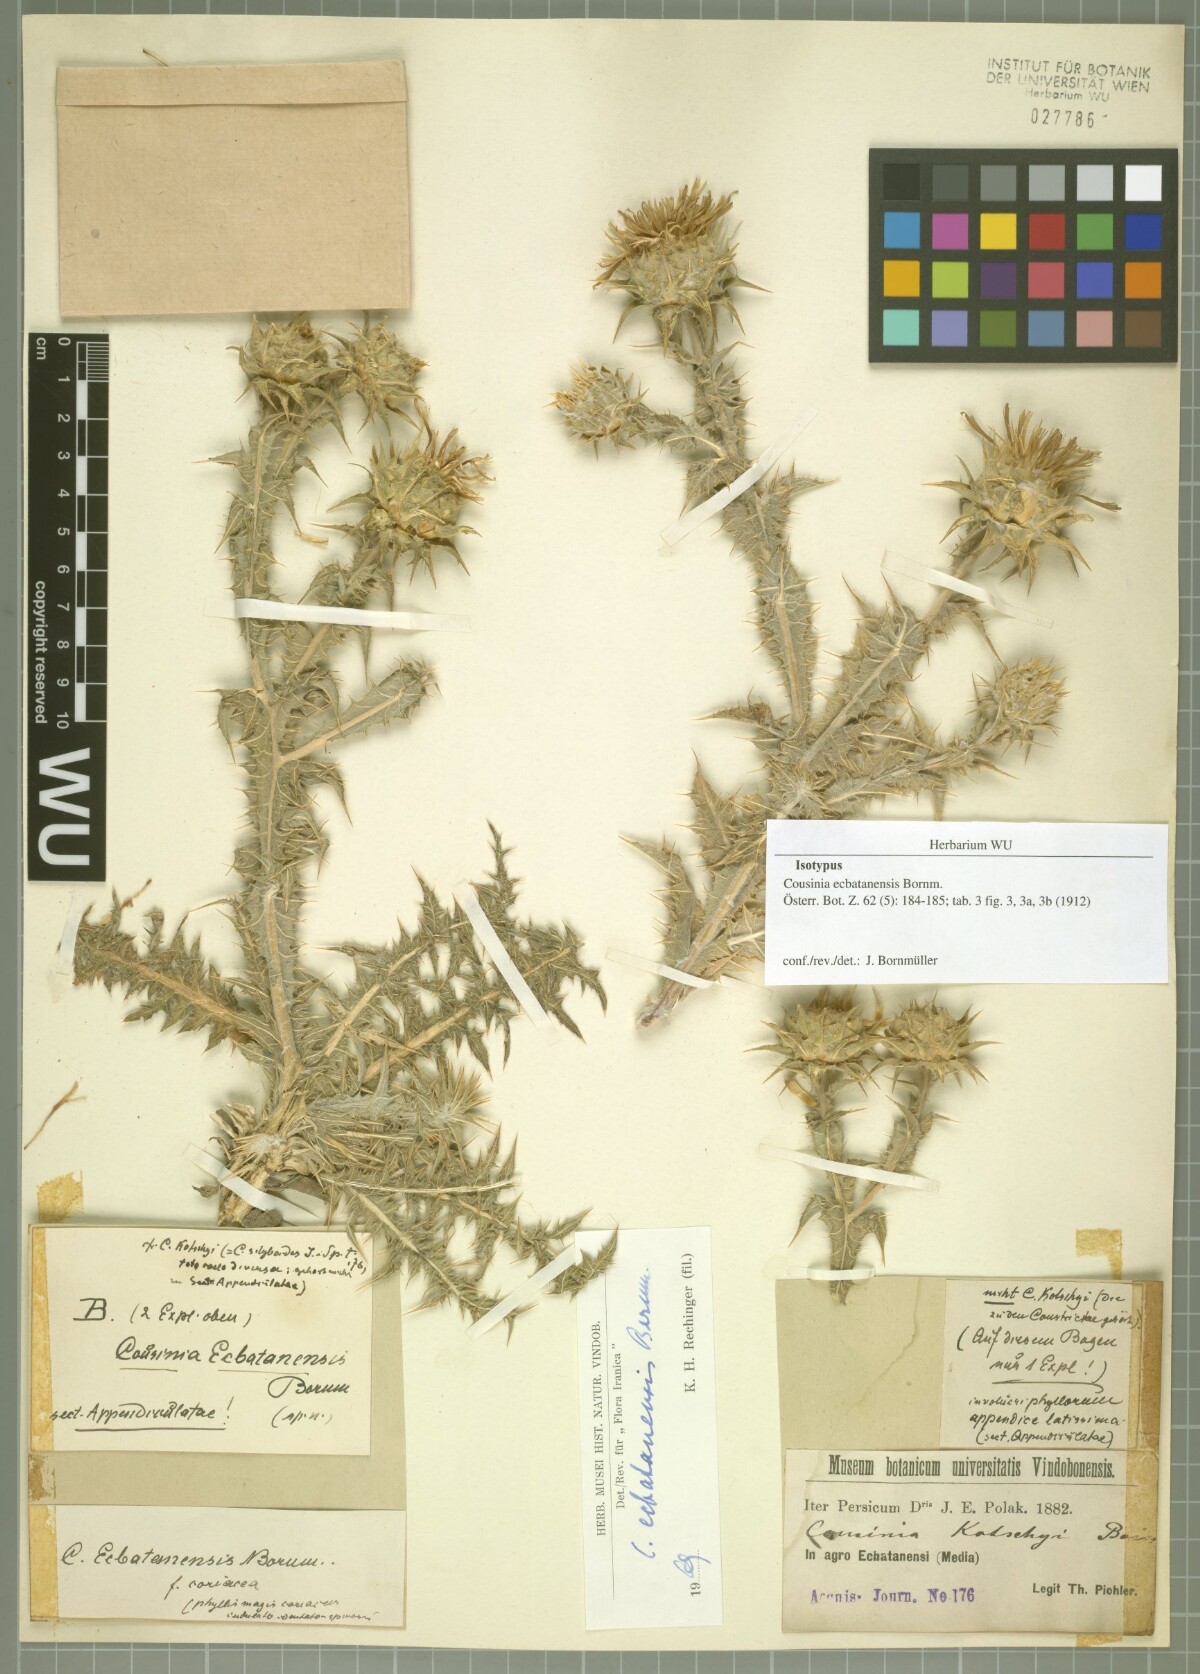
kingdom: Plantae
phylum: Tracheophyta
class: Magnoliopsida
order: Asterales
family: Asteraceae
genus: Cousinia
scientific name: Cousinia ecbatanensis
